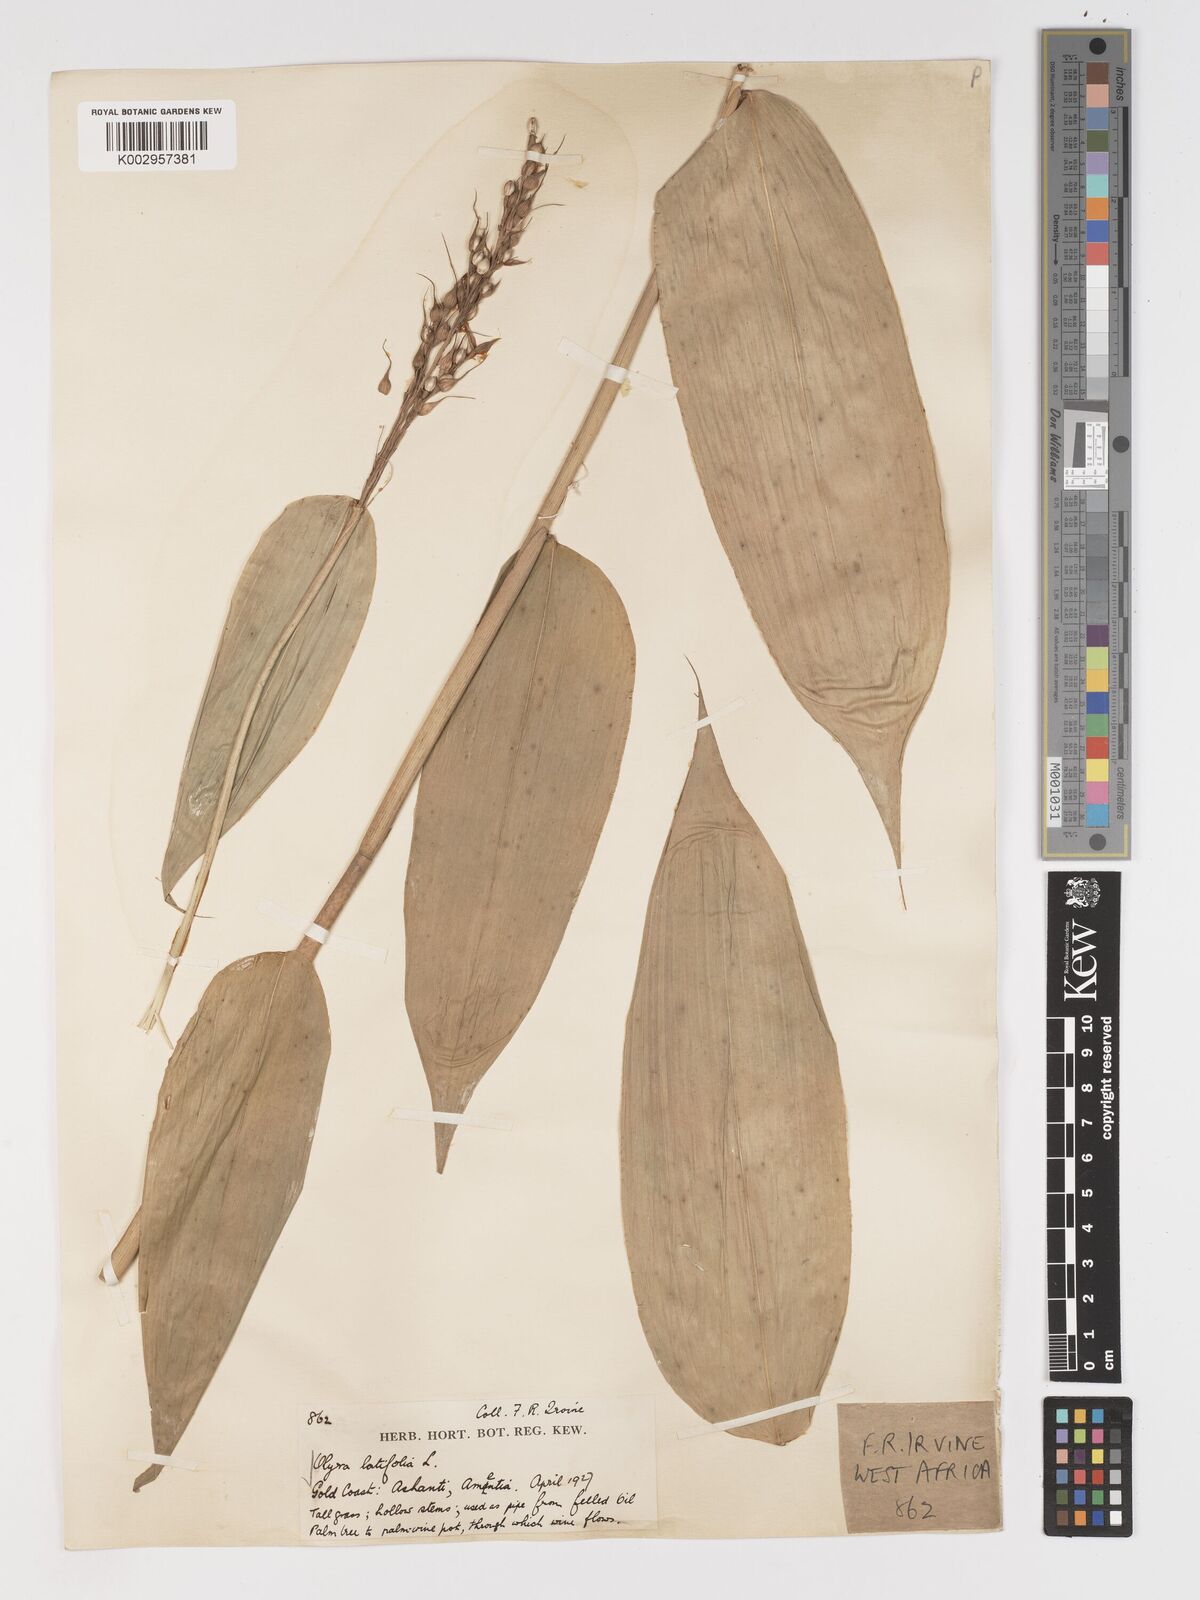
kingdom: Plantae
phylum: Tracheophyta
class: Liliopsida
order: Poales
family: Poaceae
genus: Olyra
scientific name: Olyra latifolia
